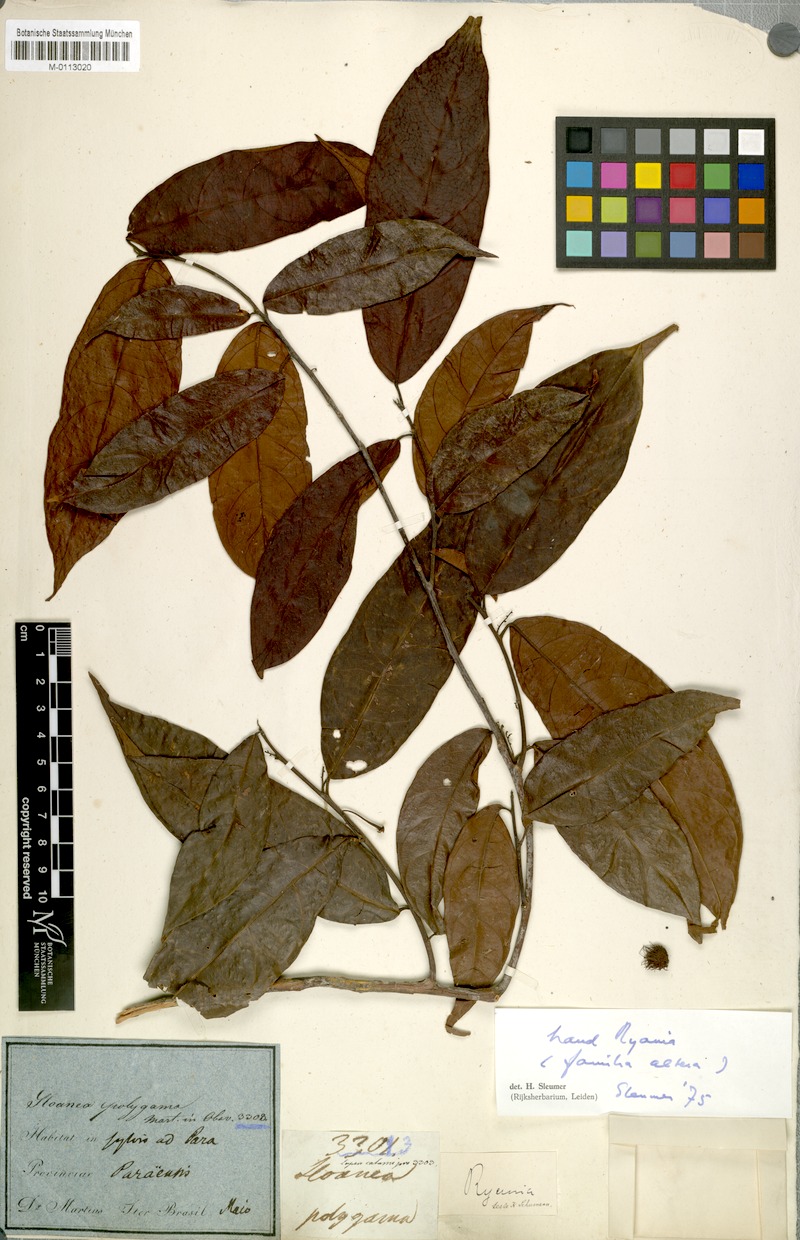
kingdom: Plantae
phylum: Tracheophyta
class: Magnoliopsida
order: Oxalidales
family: Elaeocarpaceae
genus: Sloanea
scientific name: Sloanea
